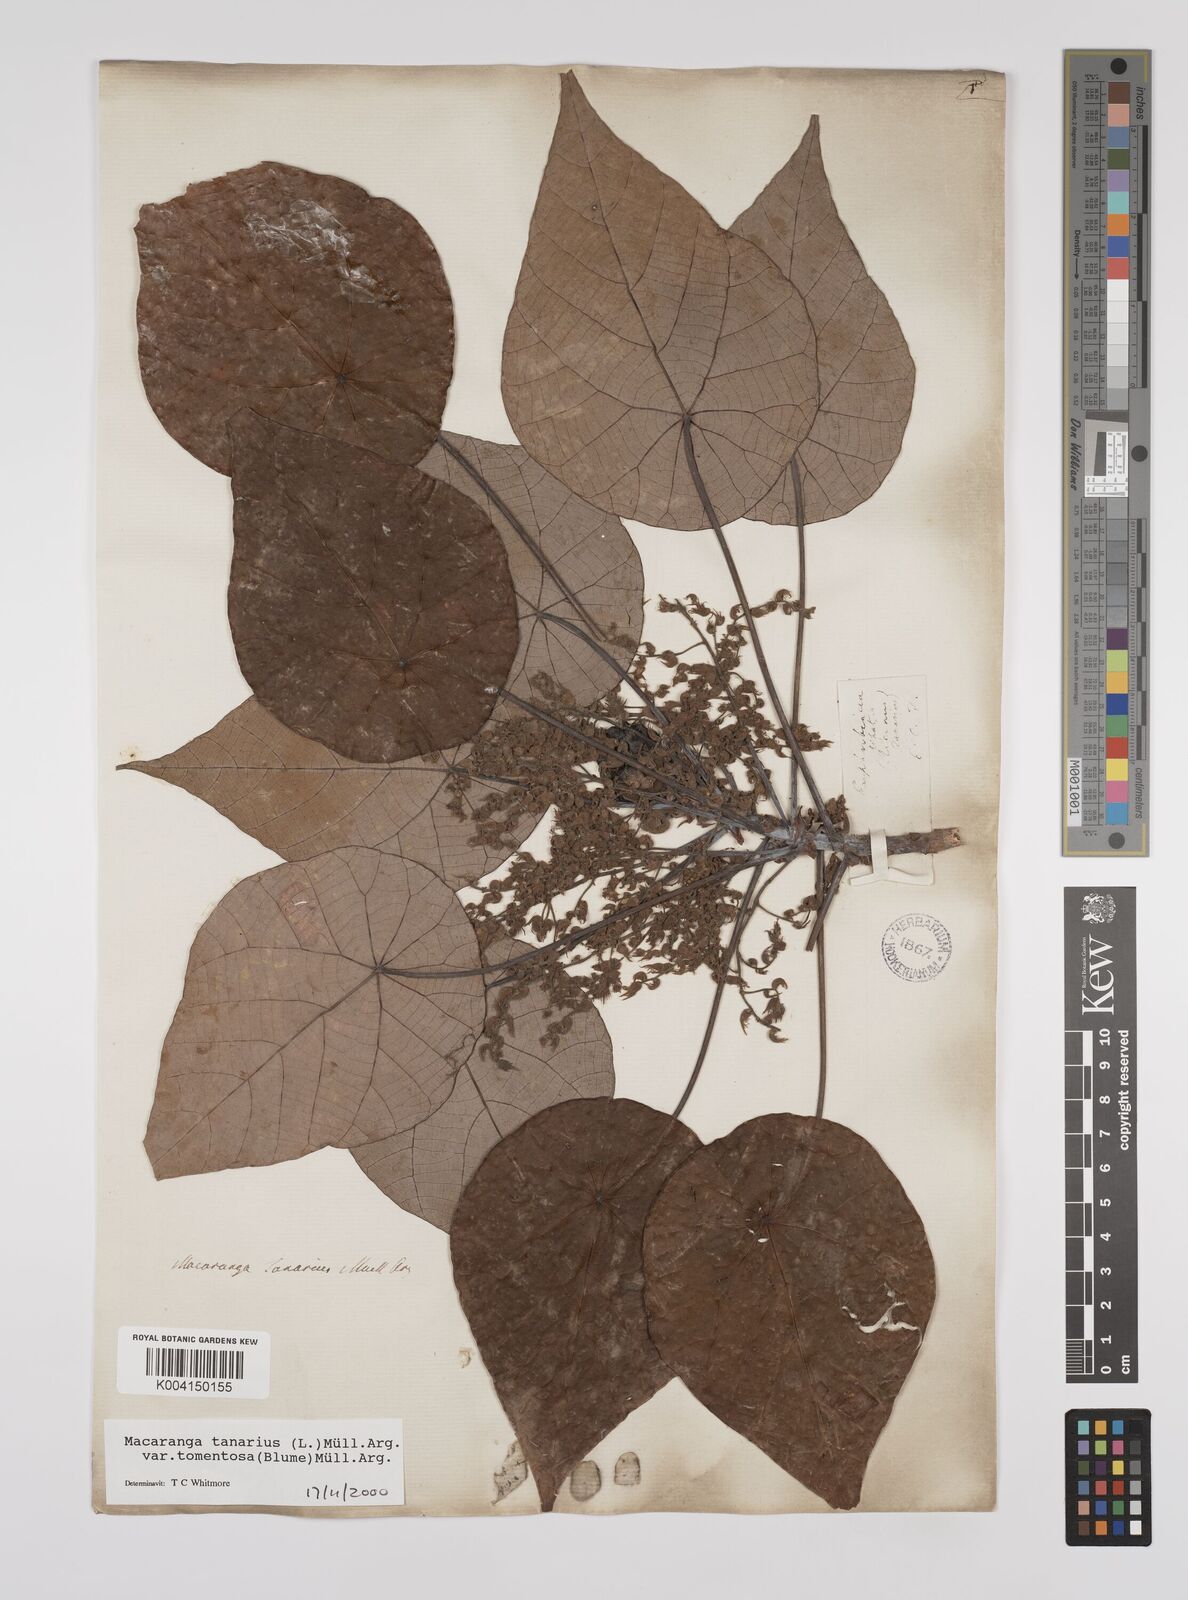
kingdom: Plantae
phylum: Tracheophyta
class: Magnoliopsida
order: Malpighiales
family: Euphorbiaceae
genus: Macaranga
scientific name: Macaranga tanarius
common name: Parasol leaf tree
